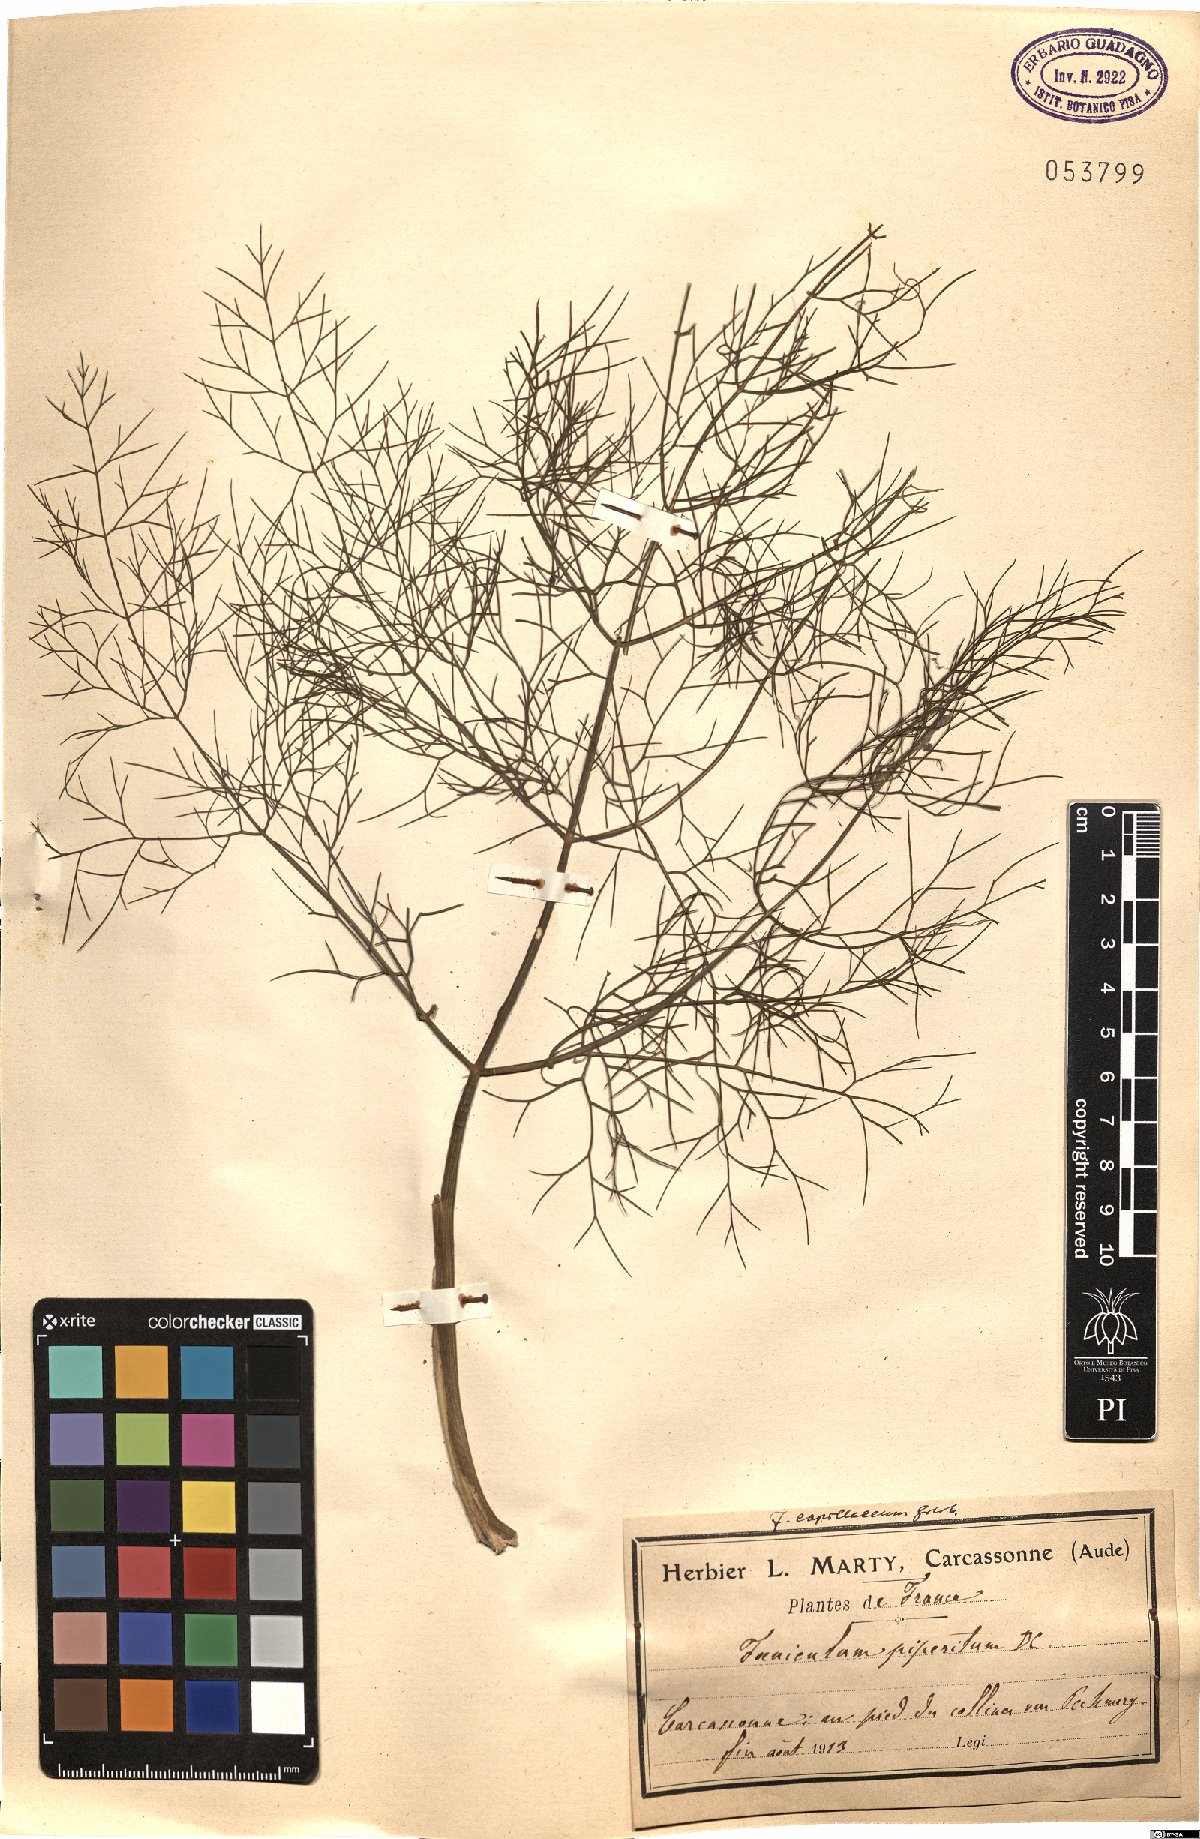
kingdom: Plantae
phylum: Tracheophyta
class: Magnoliopsida
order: Apiales
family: Apiaceae
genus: Foeniculum
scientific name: Foeniculum vulgare
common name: Fennel
